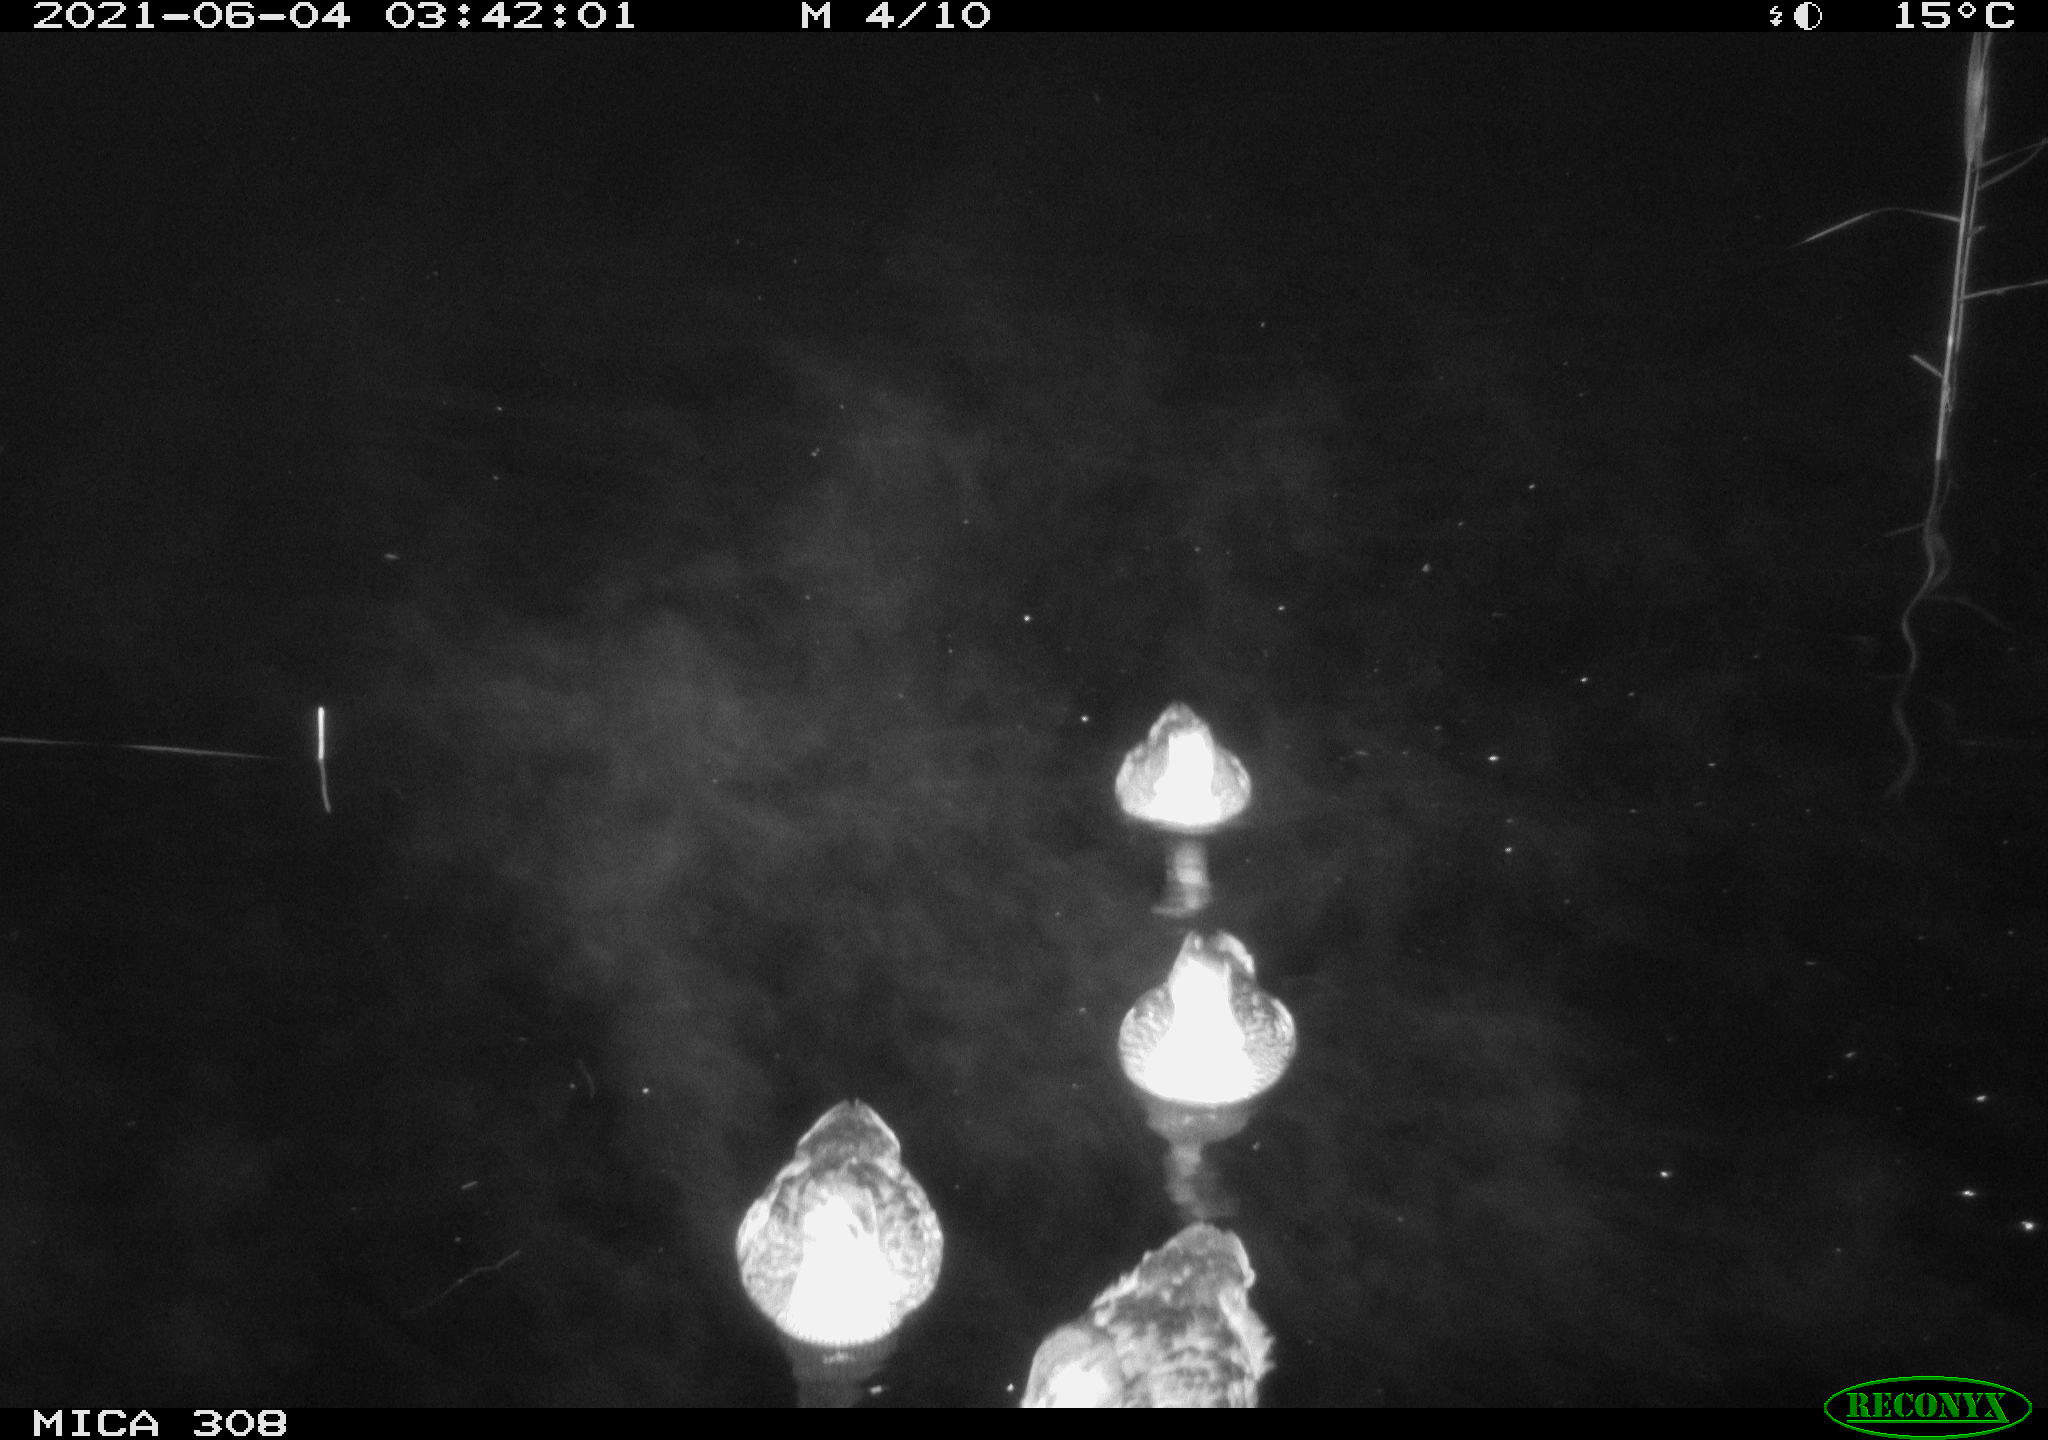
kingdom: Animalia
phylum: Chordata
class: Aves
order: Anseriformes
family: Anatidae
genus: Anas
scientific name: Anas platyrhynchos
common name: Mallard
